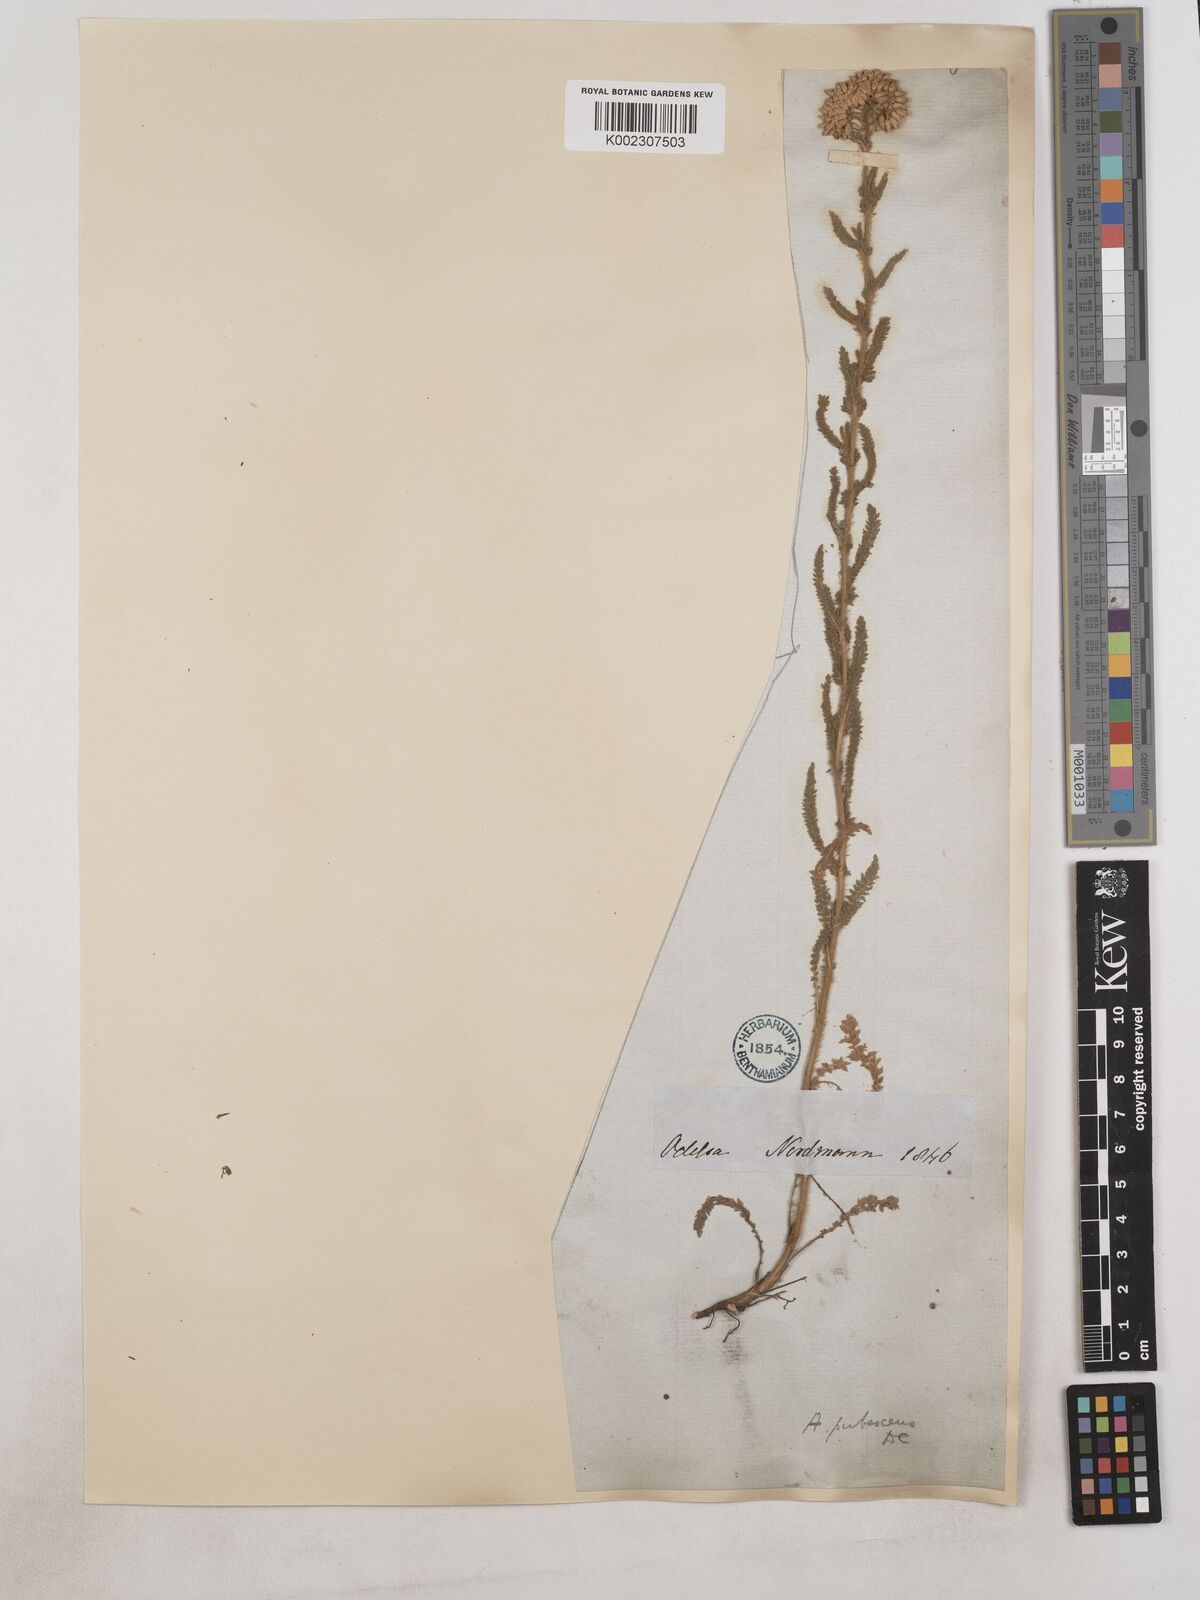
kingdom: Plantae
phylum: Tracheophyta
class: Magnoliopsida
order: Asterales
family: Asteraceae
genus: Achillea
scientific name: Achillea arabica
